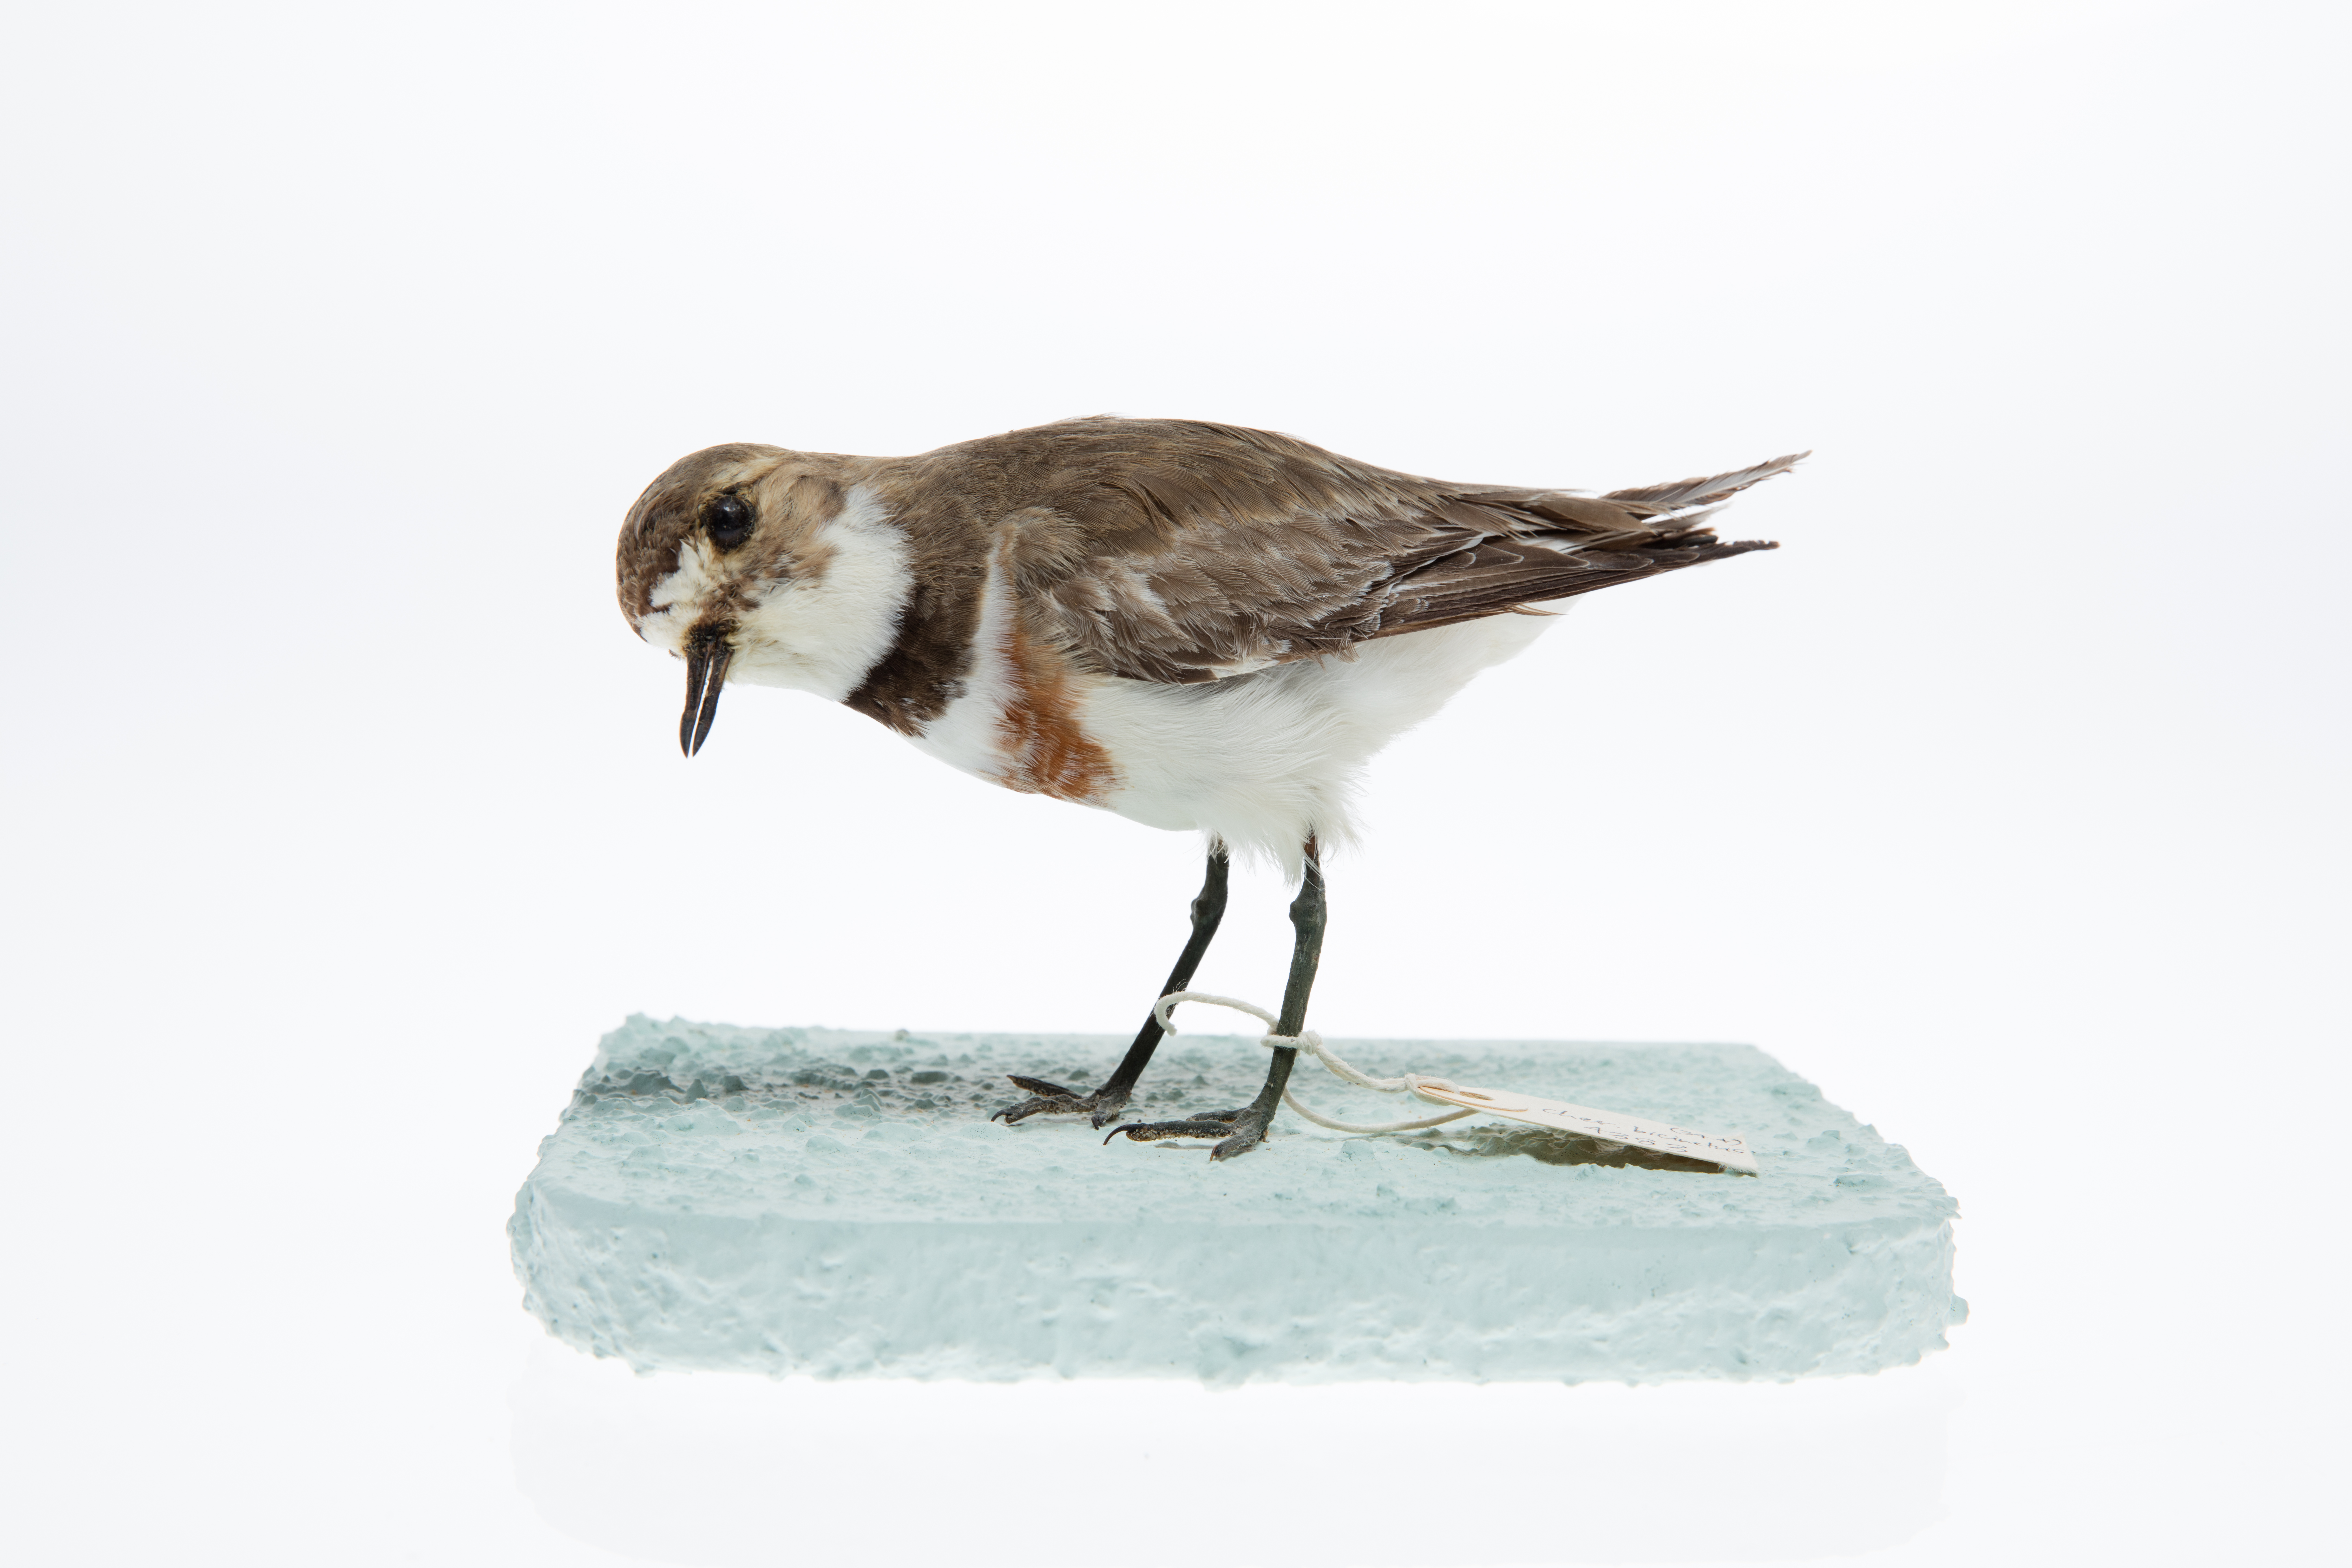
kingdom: Animalia
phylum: Chordata
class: Aves
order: Charadriiformes
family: Charadriidae
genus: Charadrius
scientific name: Charadrius bicinctus
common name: Double-banded plover
